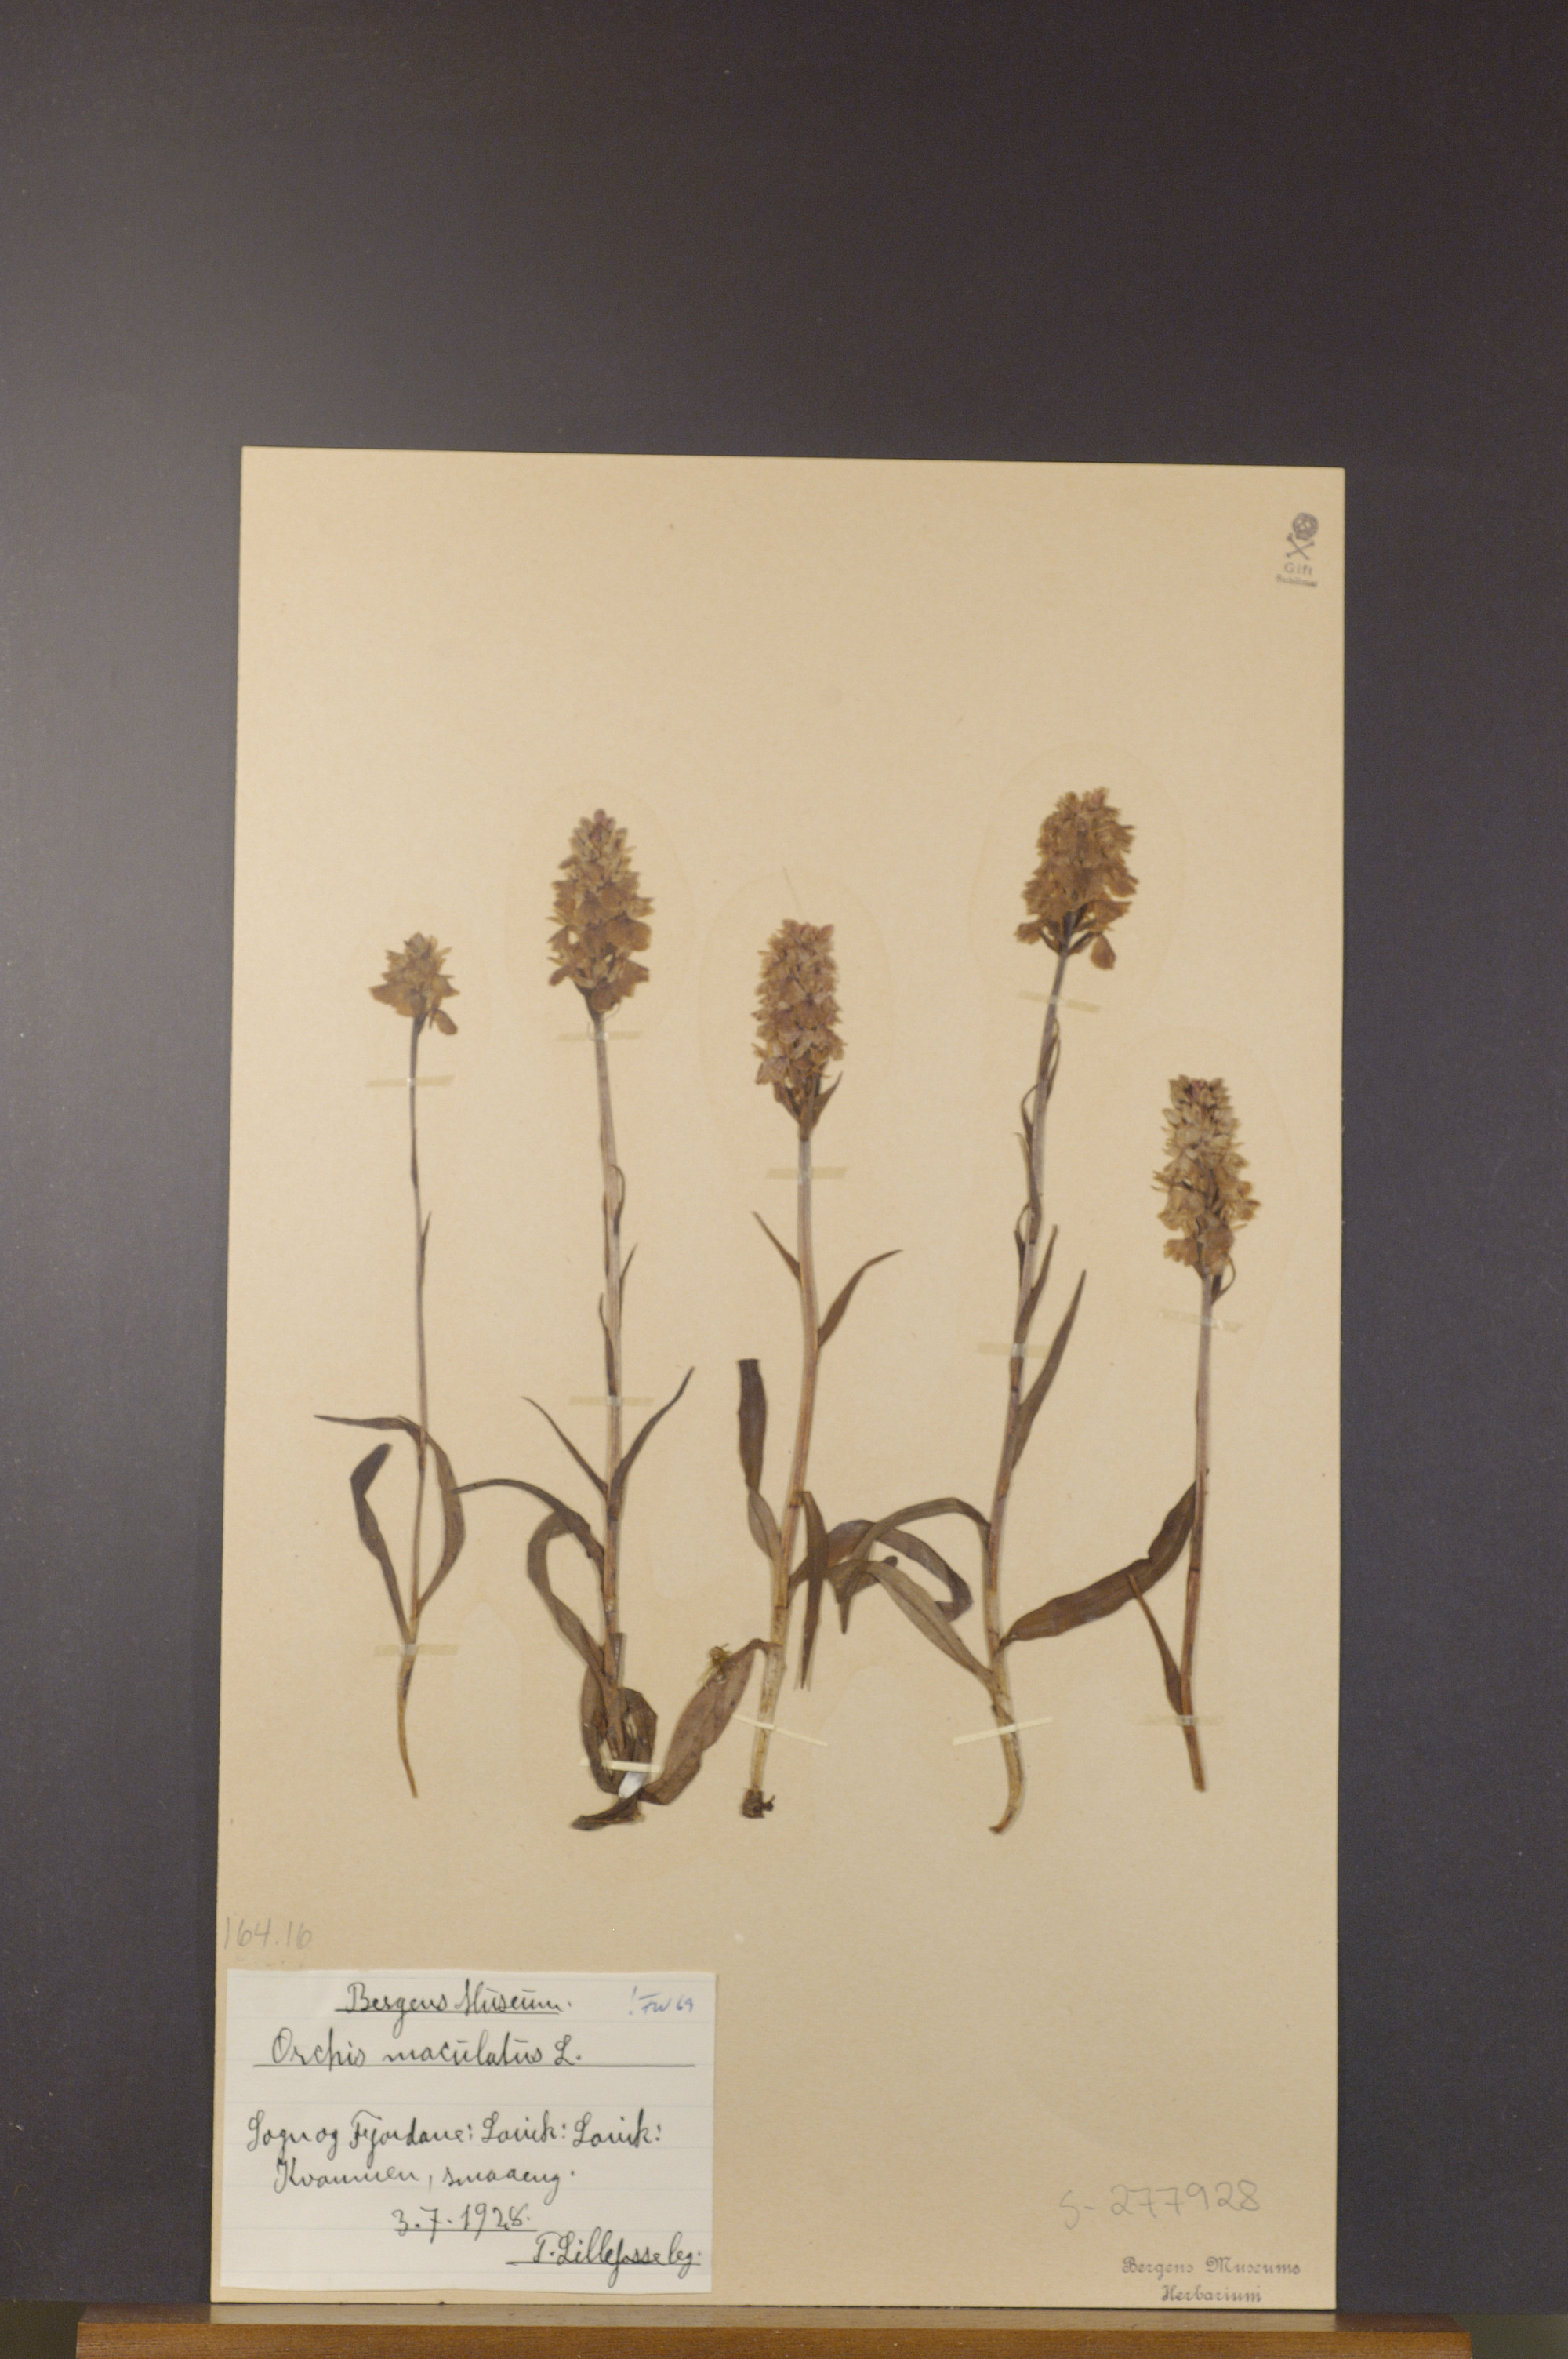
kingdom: Plantae
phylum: Tracheophyta
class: Liliopsida
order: Asparagales
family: Orchidaceae
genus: Dactylorhiza
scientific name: Dactylorhiza maculata
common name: Heath spotted-orchid
